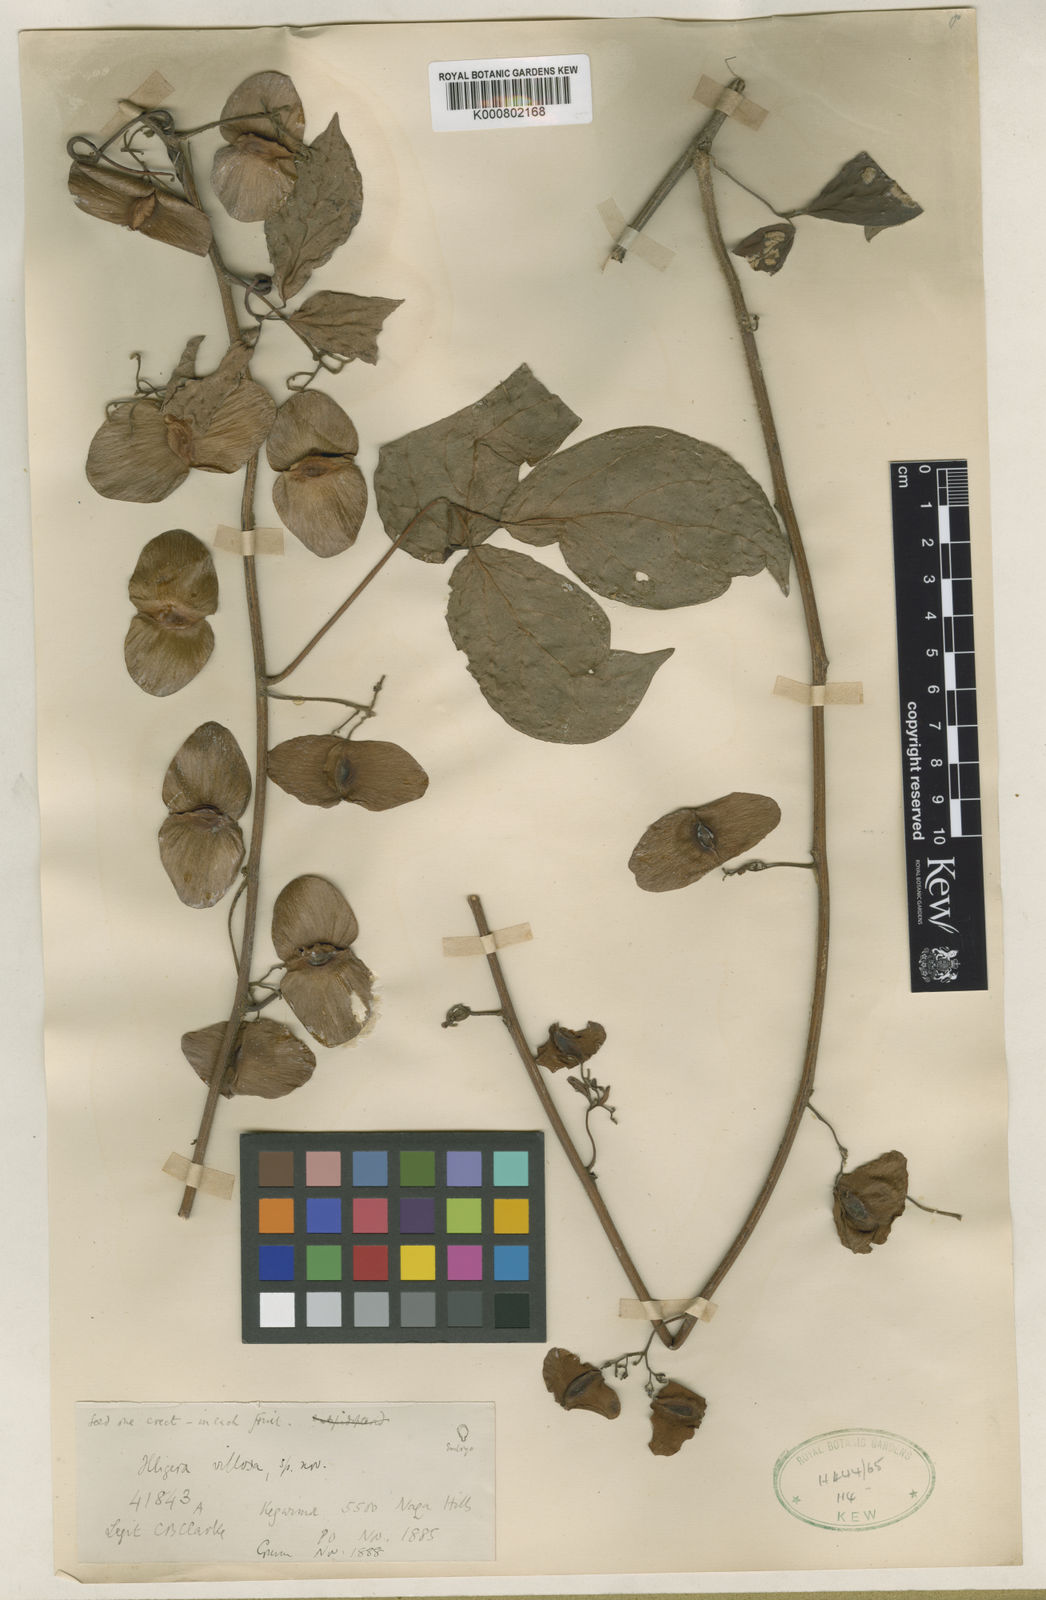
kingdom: Plantae
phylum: Tracheophyta
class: Magnoliopsida
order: Laurales
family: Hernandiaceae
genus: Illigera
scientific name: Illigera villosa
